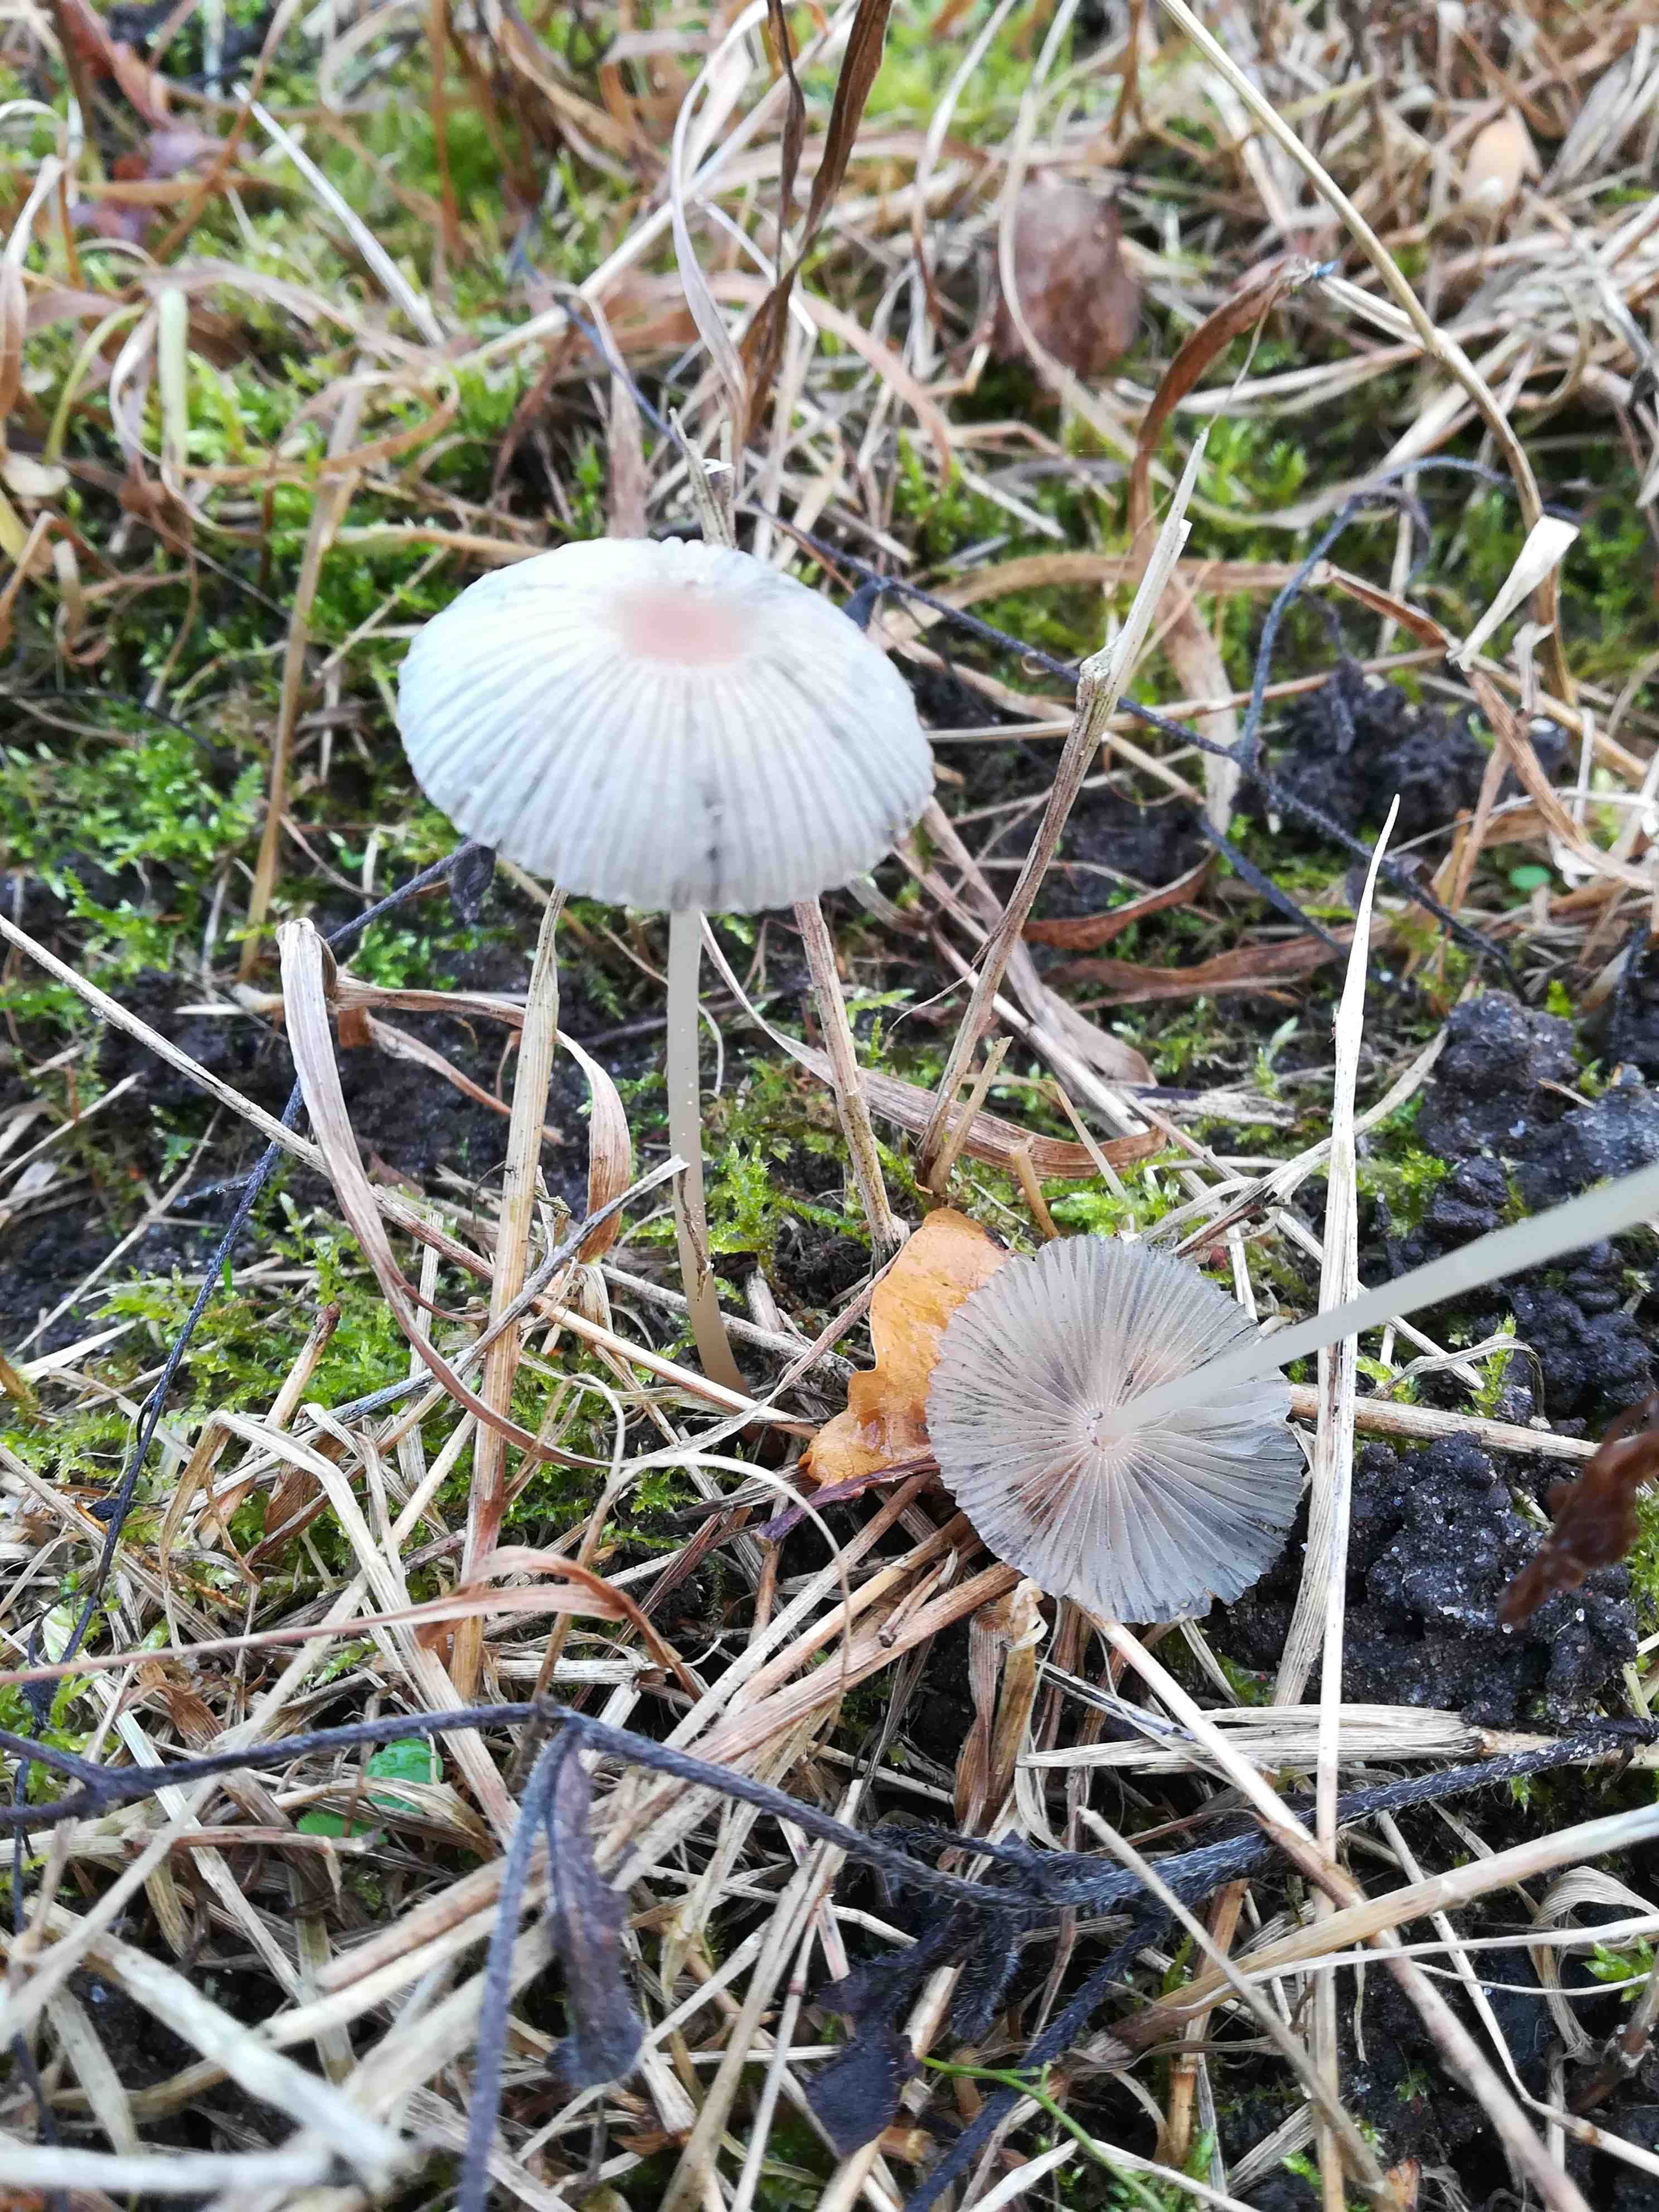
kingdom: Fungi
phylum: Basidiomycota
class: Agaricomycetes
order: Agaricales
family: Psathyrellaceae
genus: Parasola
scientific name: Parasola
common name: hjulhat
